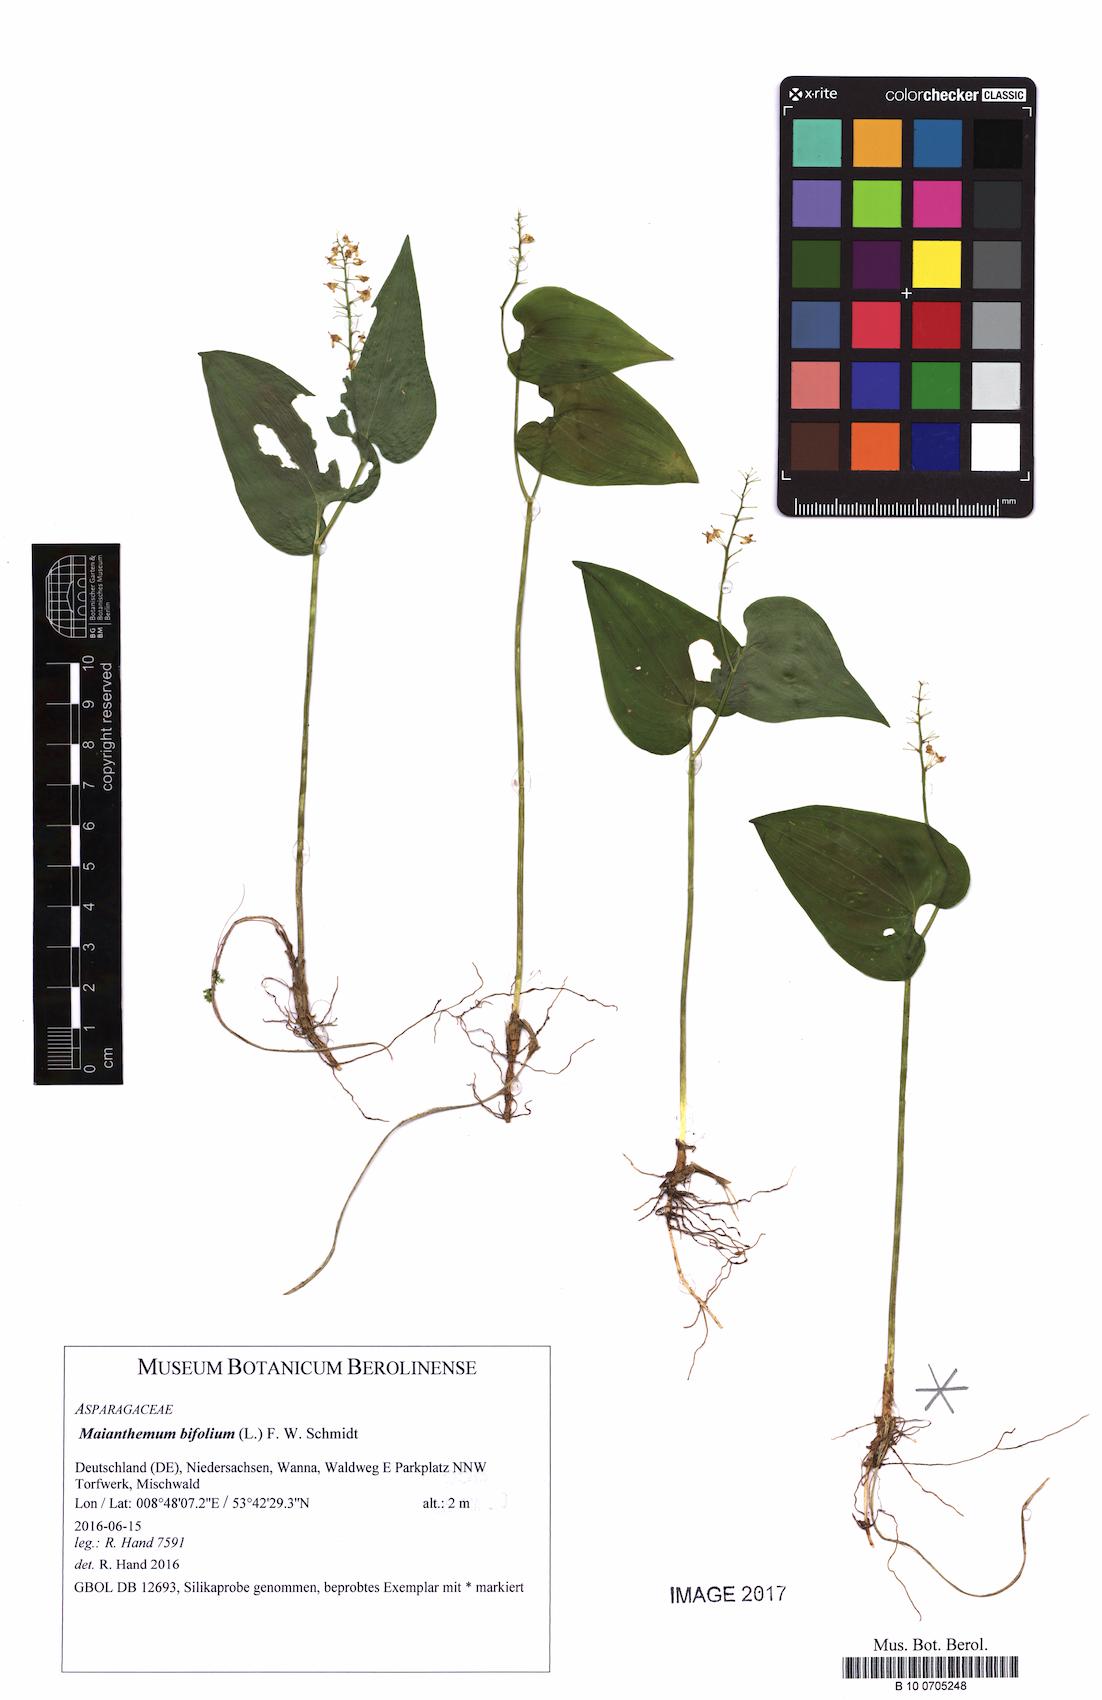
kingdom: Plantae
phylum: Tracheophyta
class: Liliopsida
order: Asparagales
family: Asparagaceae
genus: Maianthemum
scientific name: Maianthemum bifolium
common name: May lily
